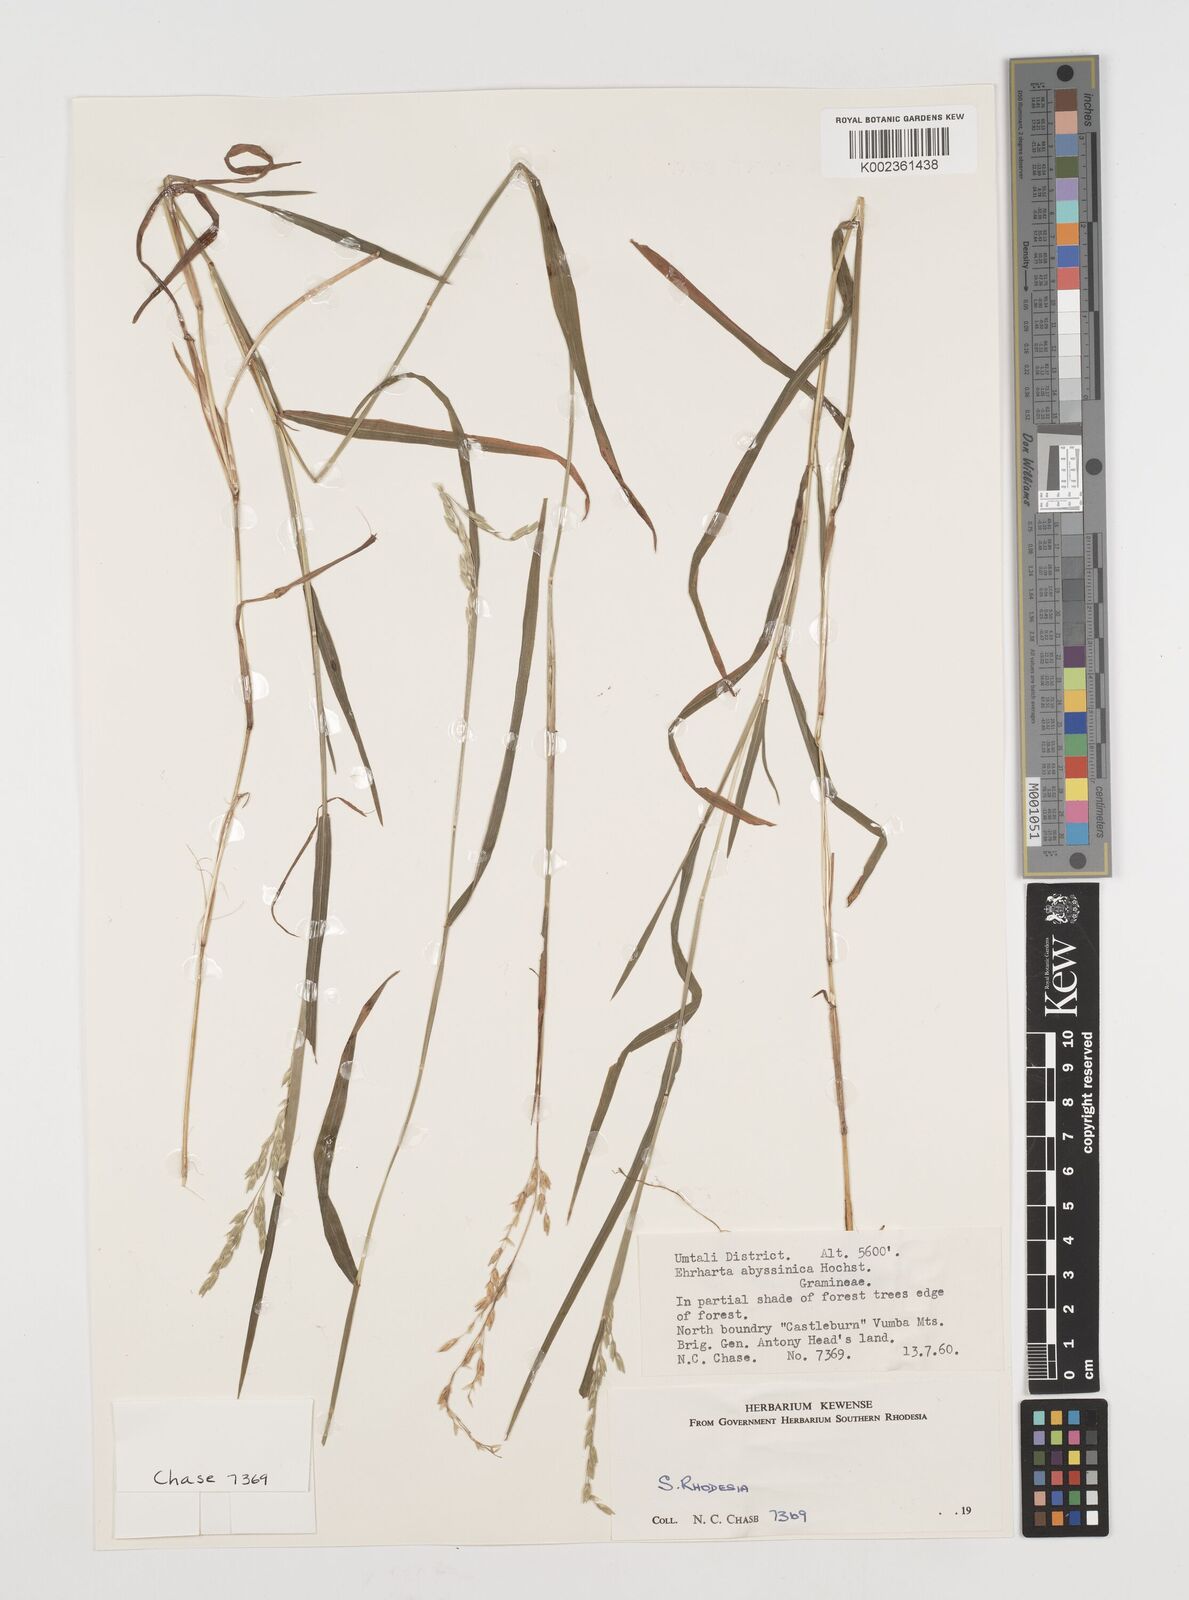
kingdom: Plantae
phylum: Tracheophyta
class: Liliopsida
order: Poales
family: Poaceae
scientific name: Poaceae
